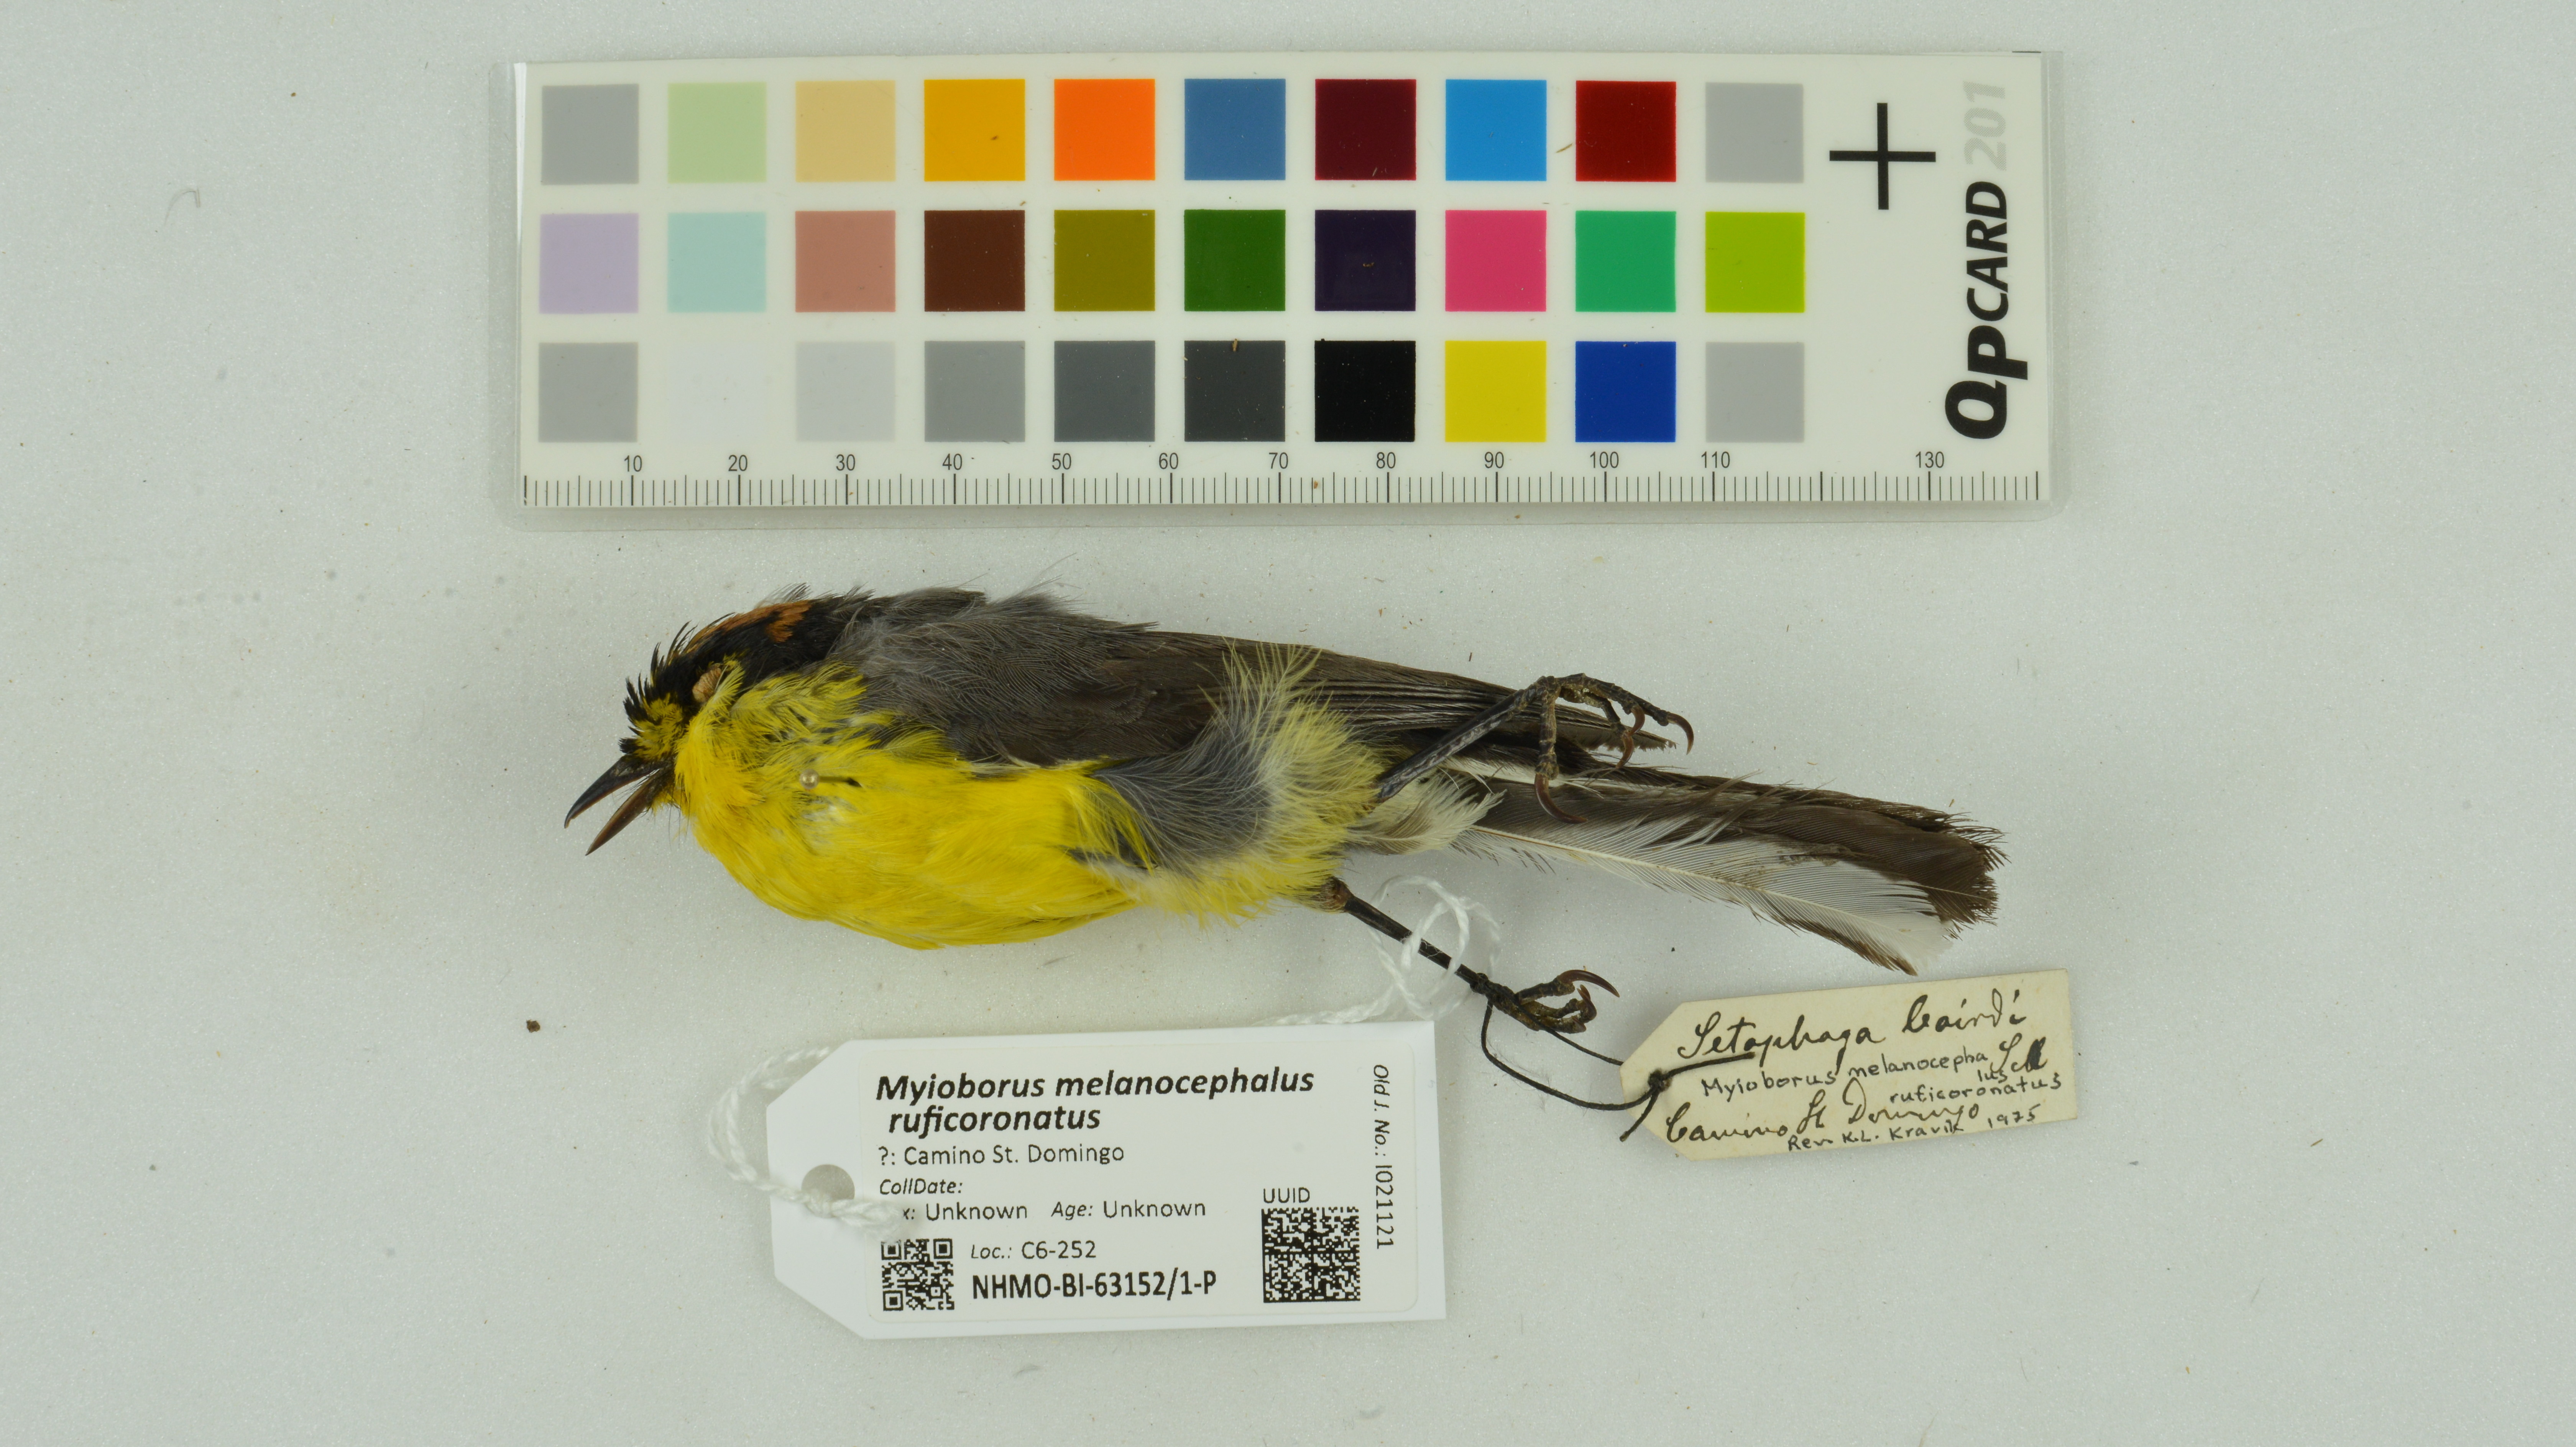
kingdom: Animalia
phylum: Chordata
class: Aves
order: Passeriformes
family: Parulidae
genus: Myioborus
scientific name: Myioborus melanocephalus
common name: Spectacled whitestart
